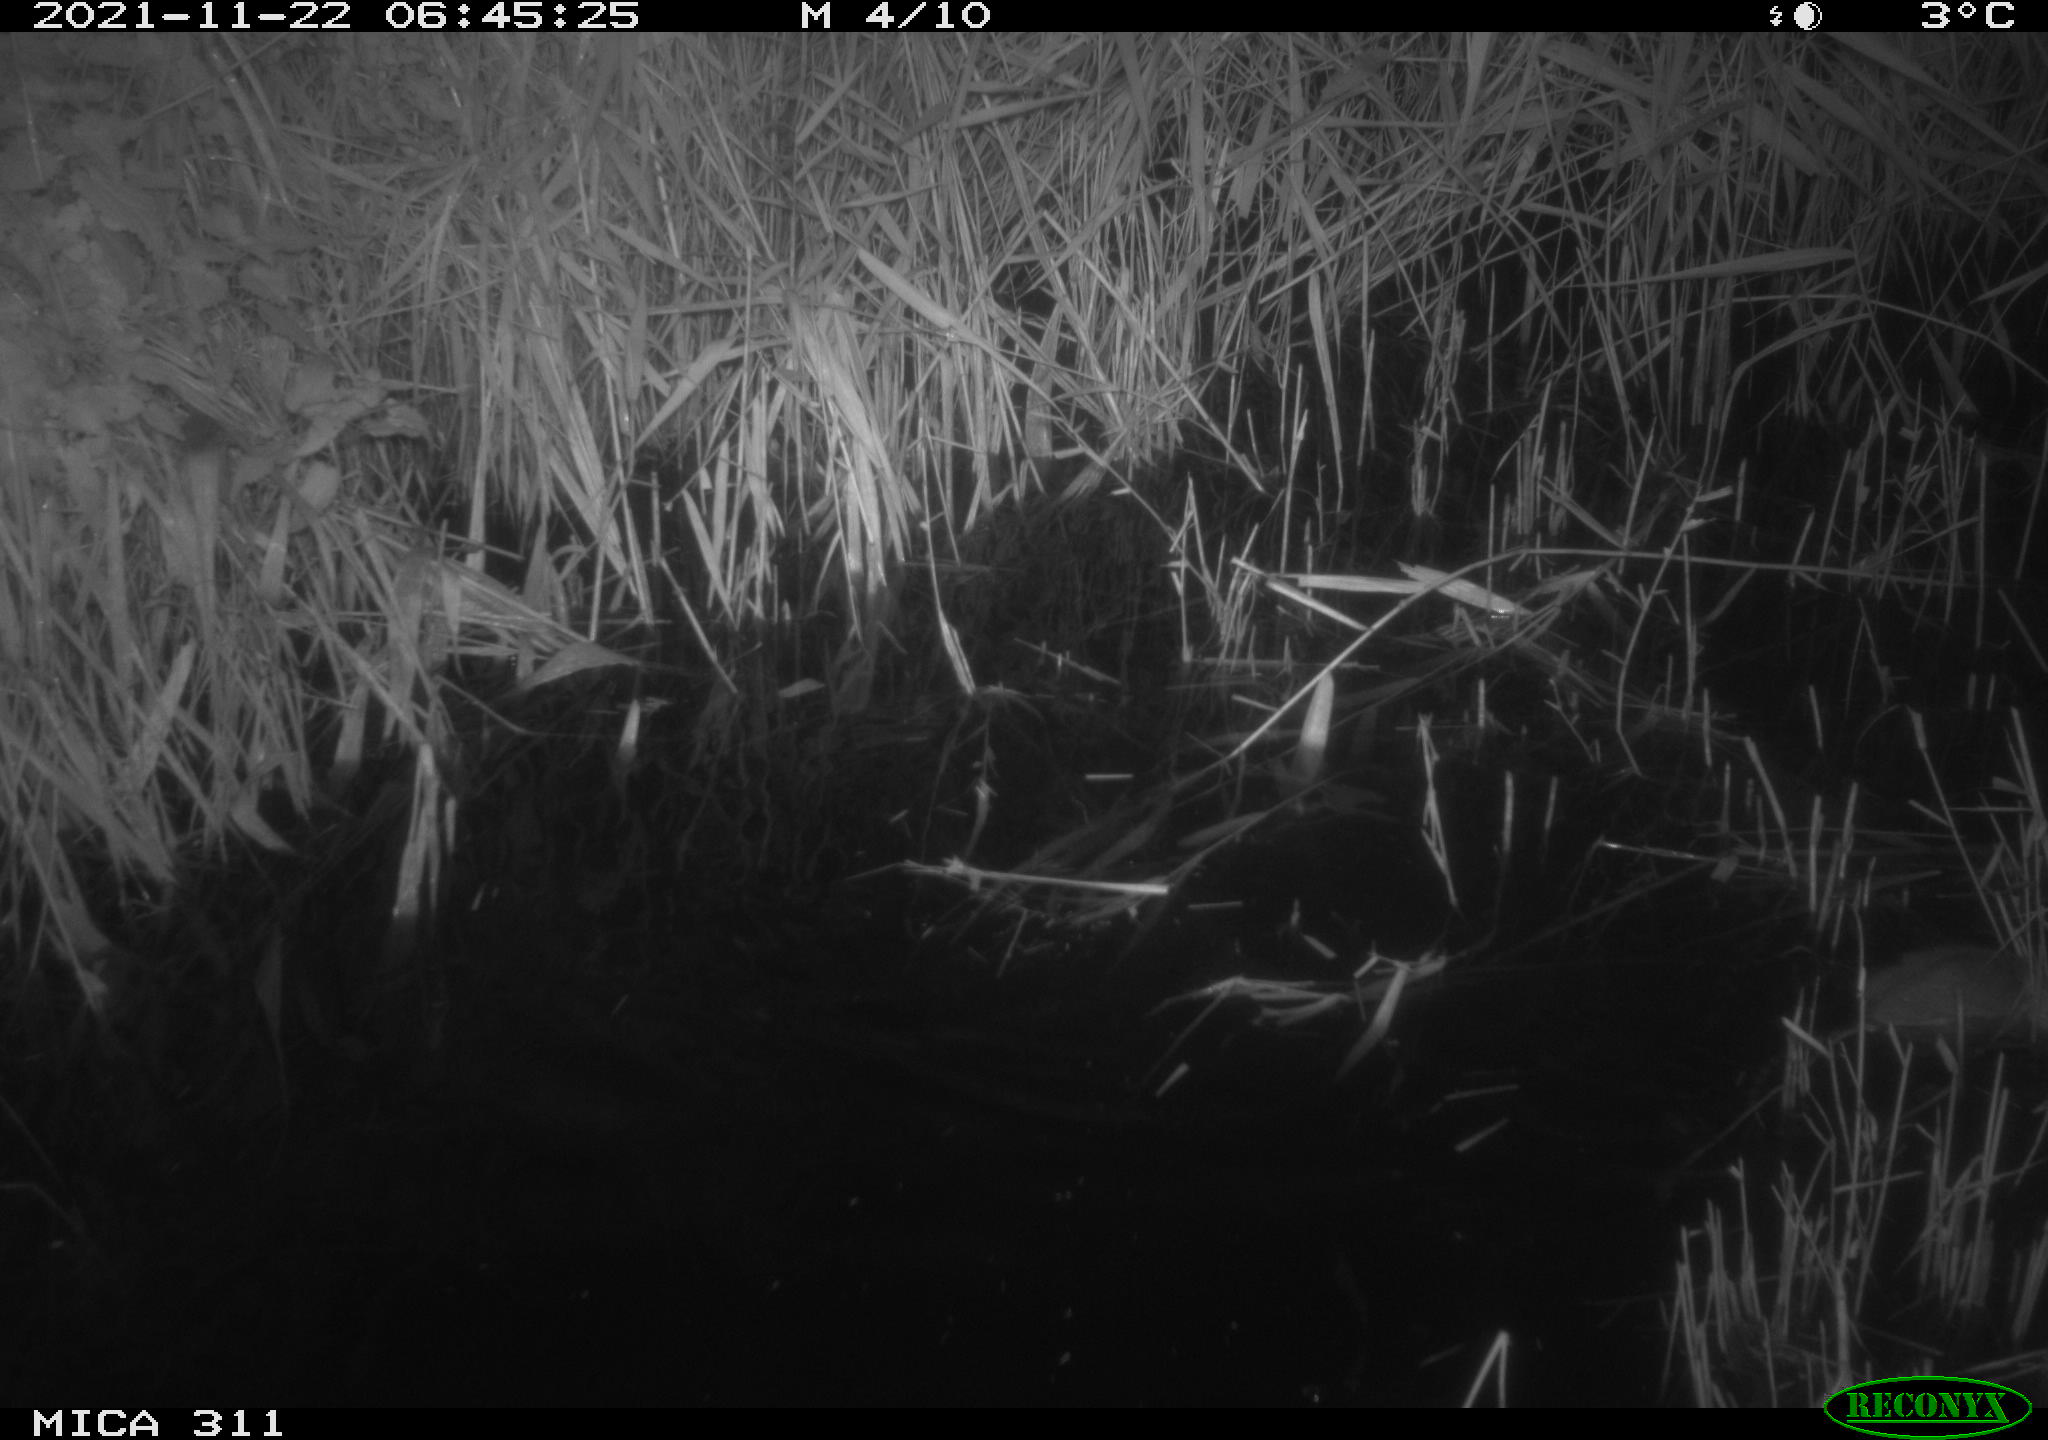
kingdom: Animalia
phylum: Chordata
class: Mammalia
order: Rodentia
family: Muridae
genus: Rattus
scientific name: Rattus norvegicus
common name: Brown rat
